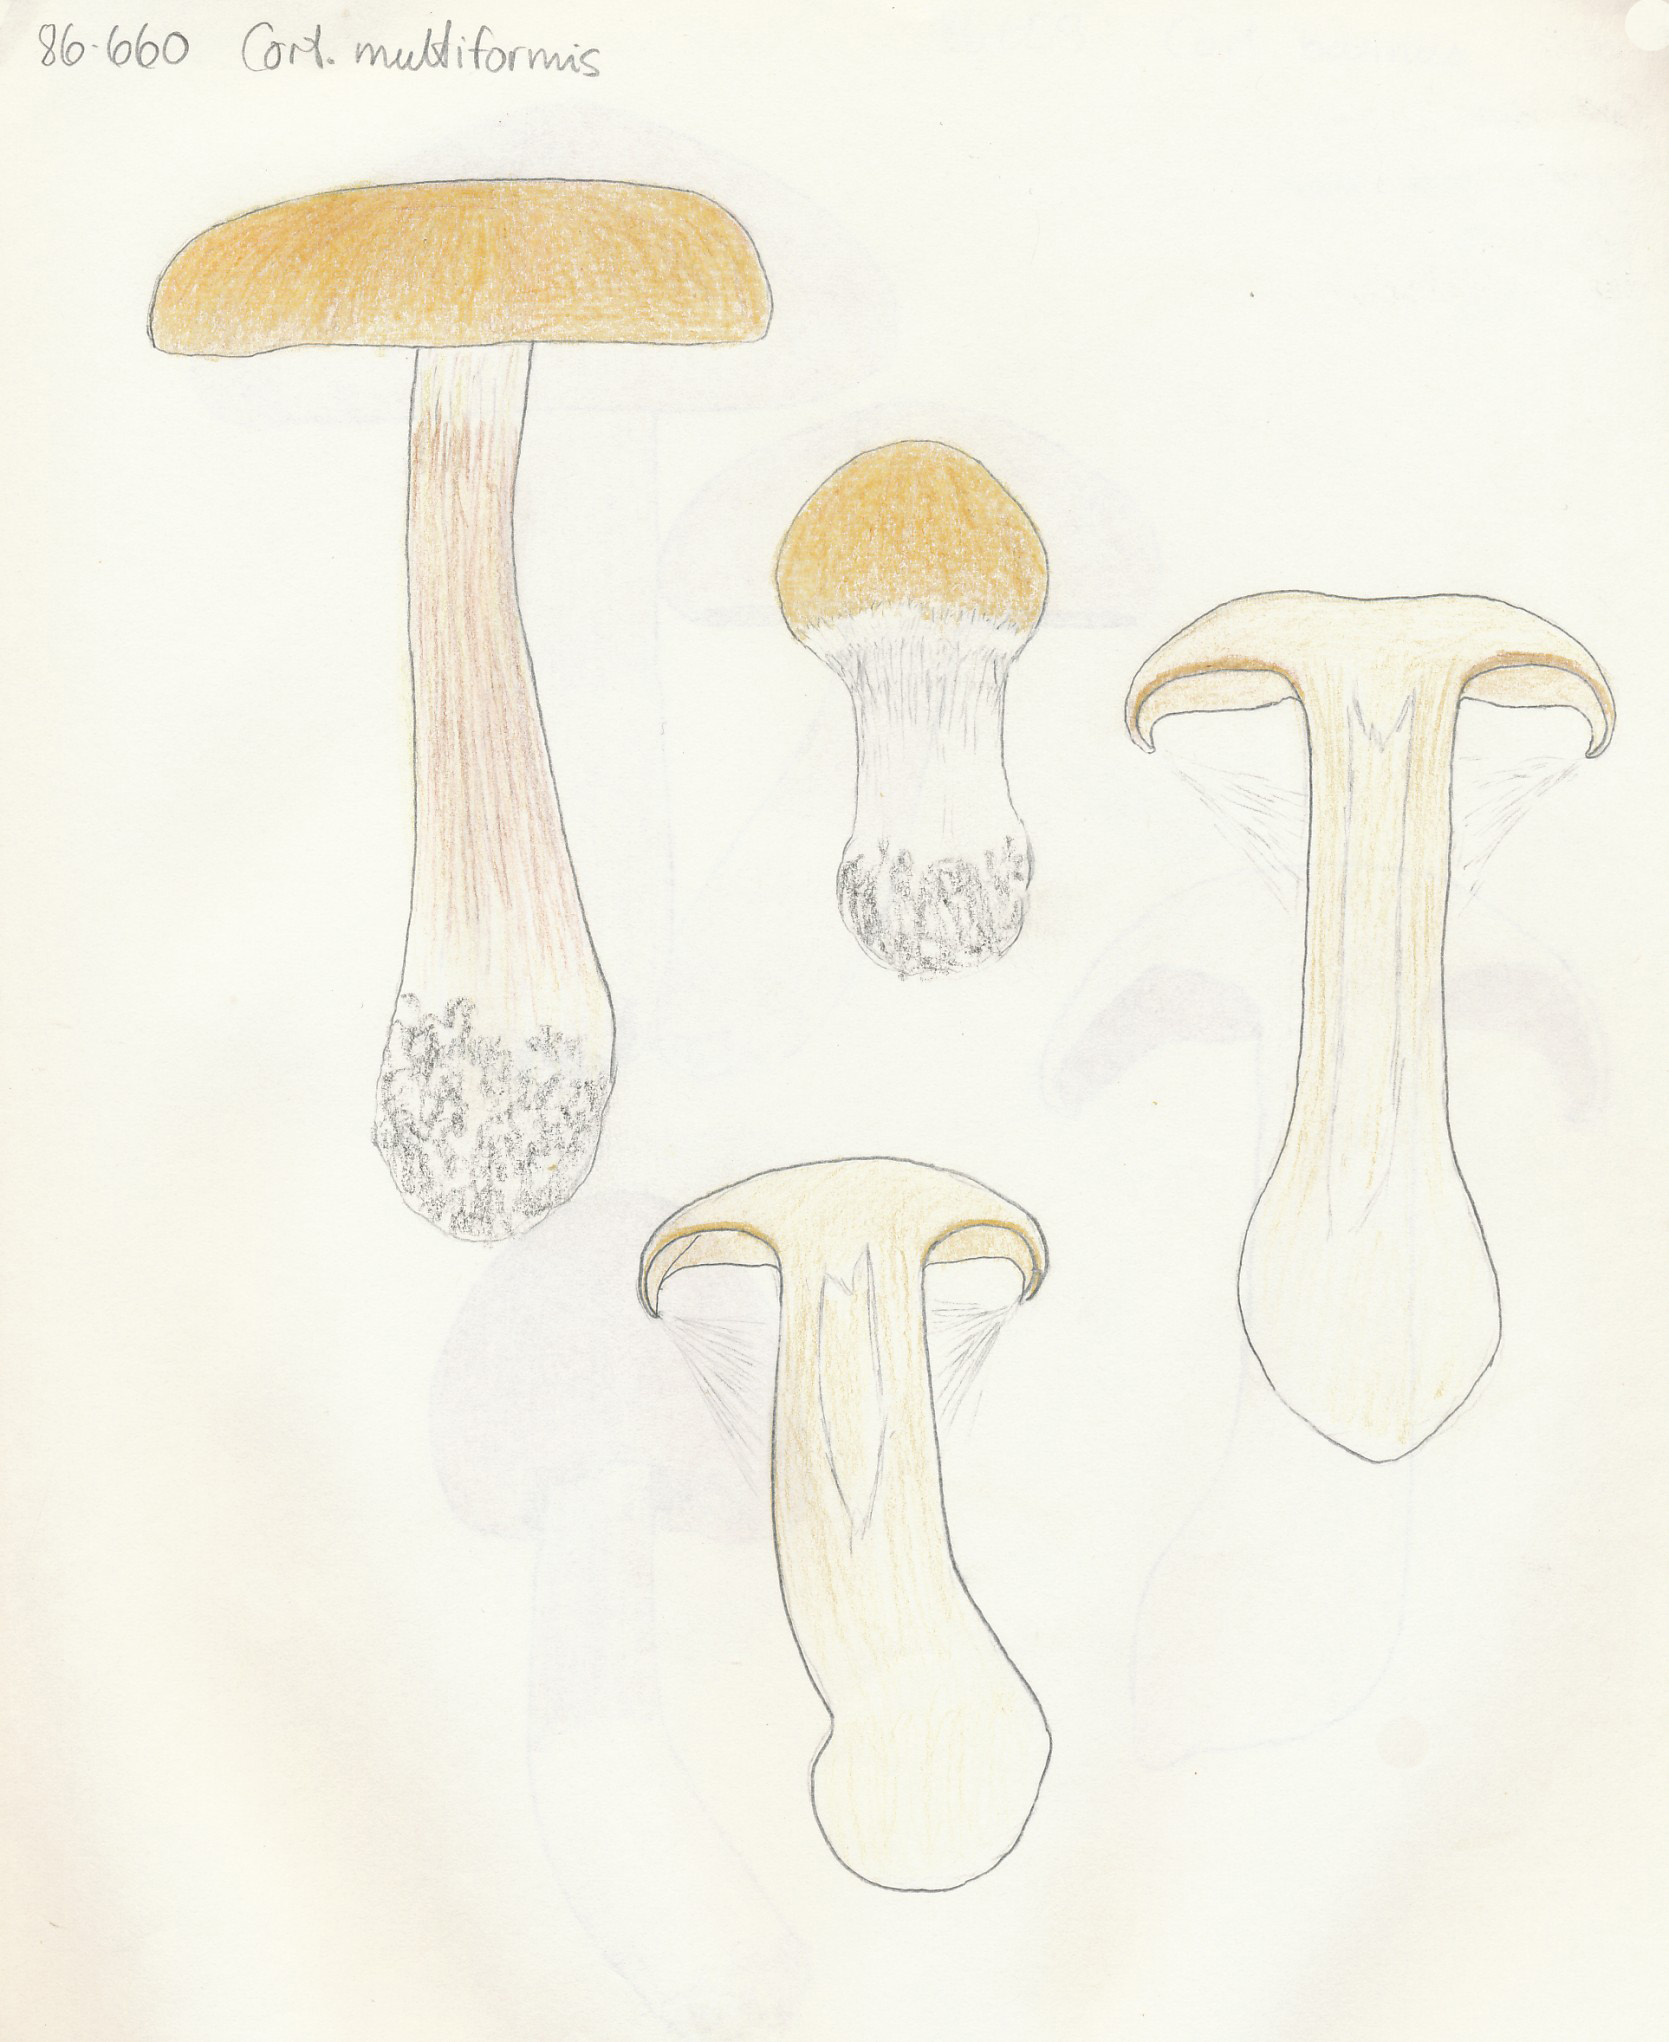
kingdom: Fungi
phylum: Basidiomycota
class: Agaricomycetes
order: Agaricales
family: Cortinariaceae
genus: Thaxterogaster
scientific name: Thaxterogaster multiformis
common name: honning-slørhat
